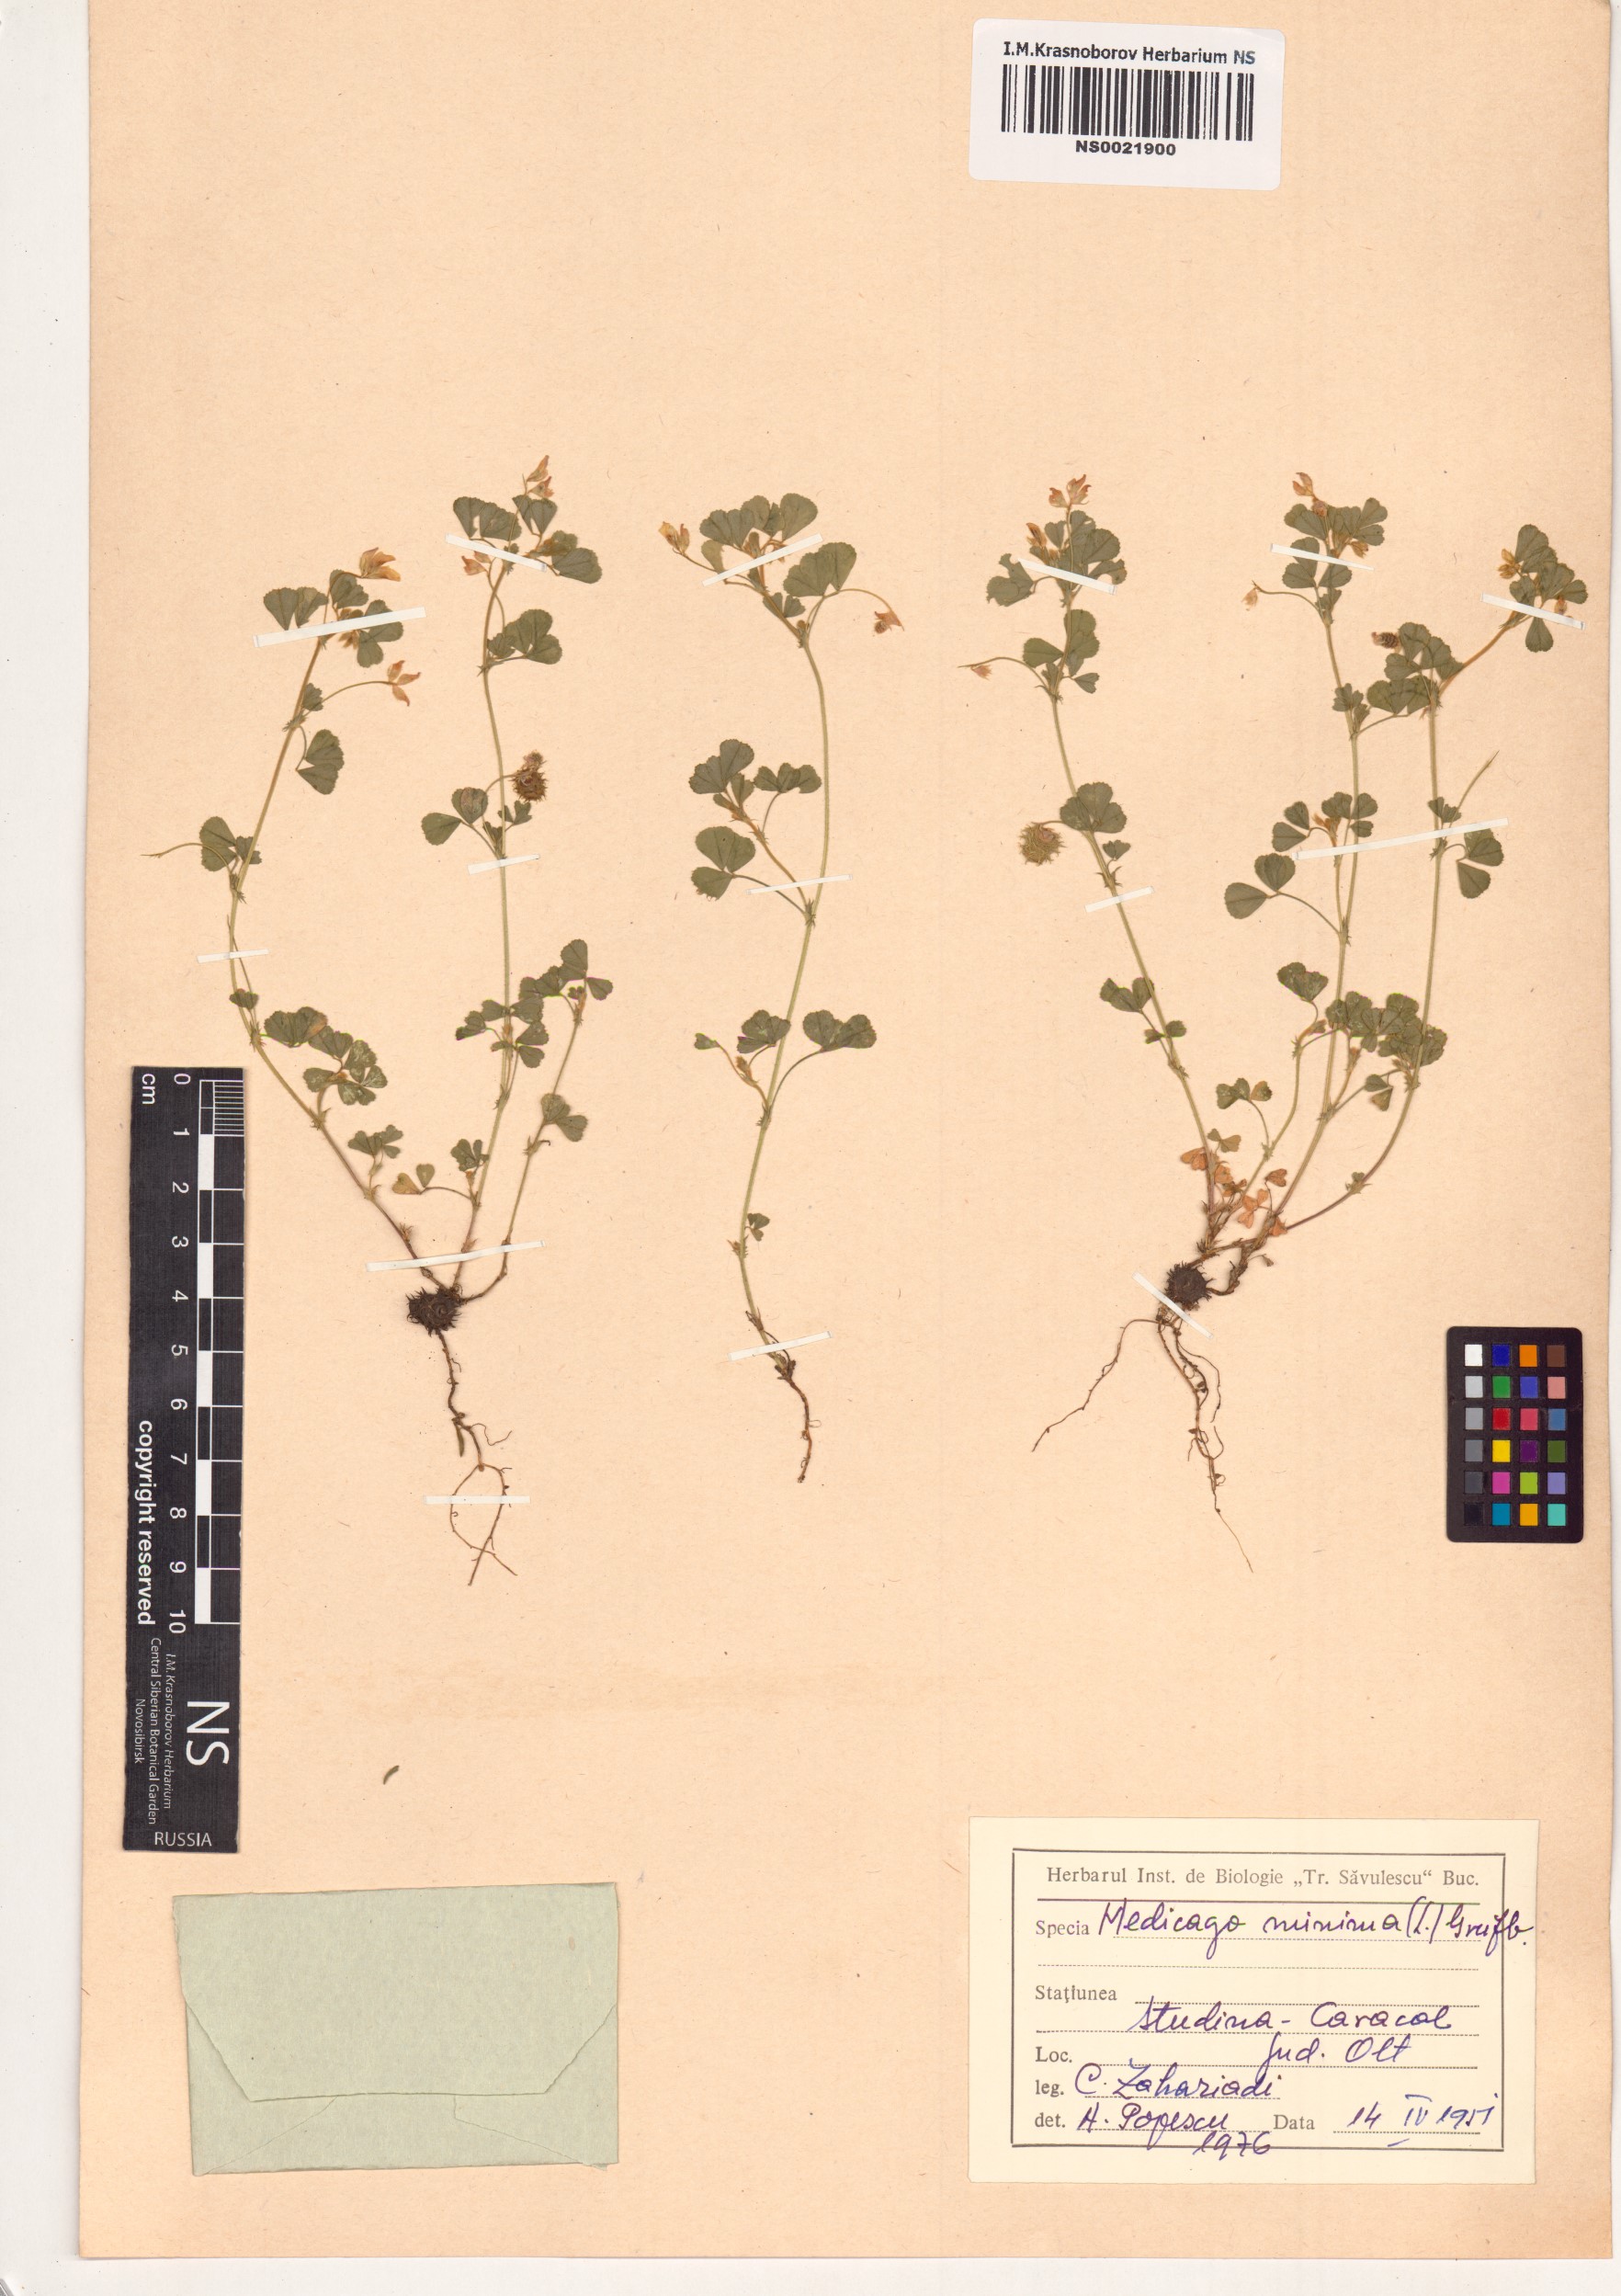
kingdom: Plantae
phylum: Tracheophyta
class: Magnoliopsida
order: Fabales
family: Fabaceae
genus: Medicago
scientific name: Medicago minima
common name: Little bur-clover
